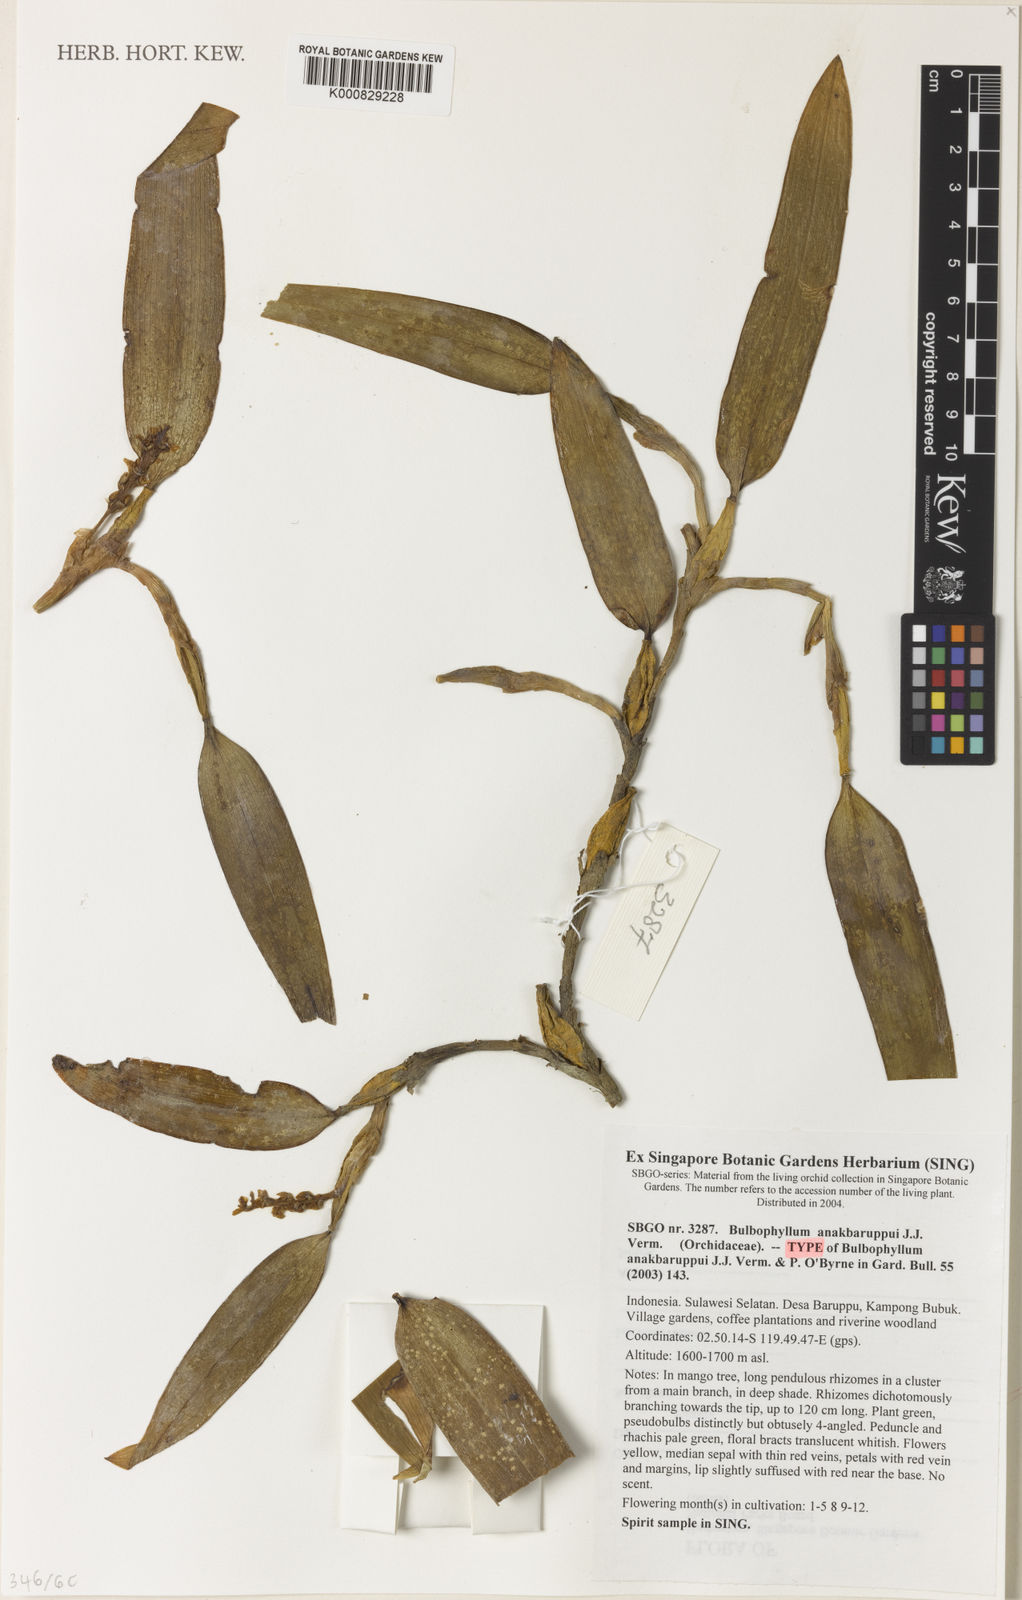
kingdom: Plantae
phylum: Tracheophyta
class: Liliopsida
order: Asparagales
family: Orchidaceae
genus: Bulbophyllum
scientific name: Bulbophyllum anakbaruppui
